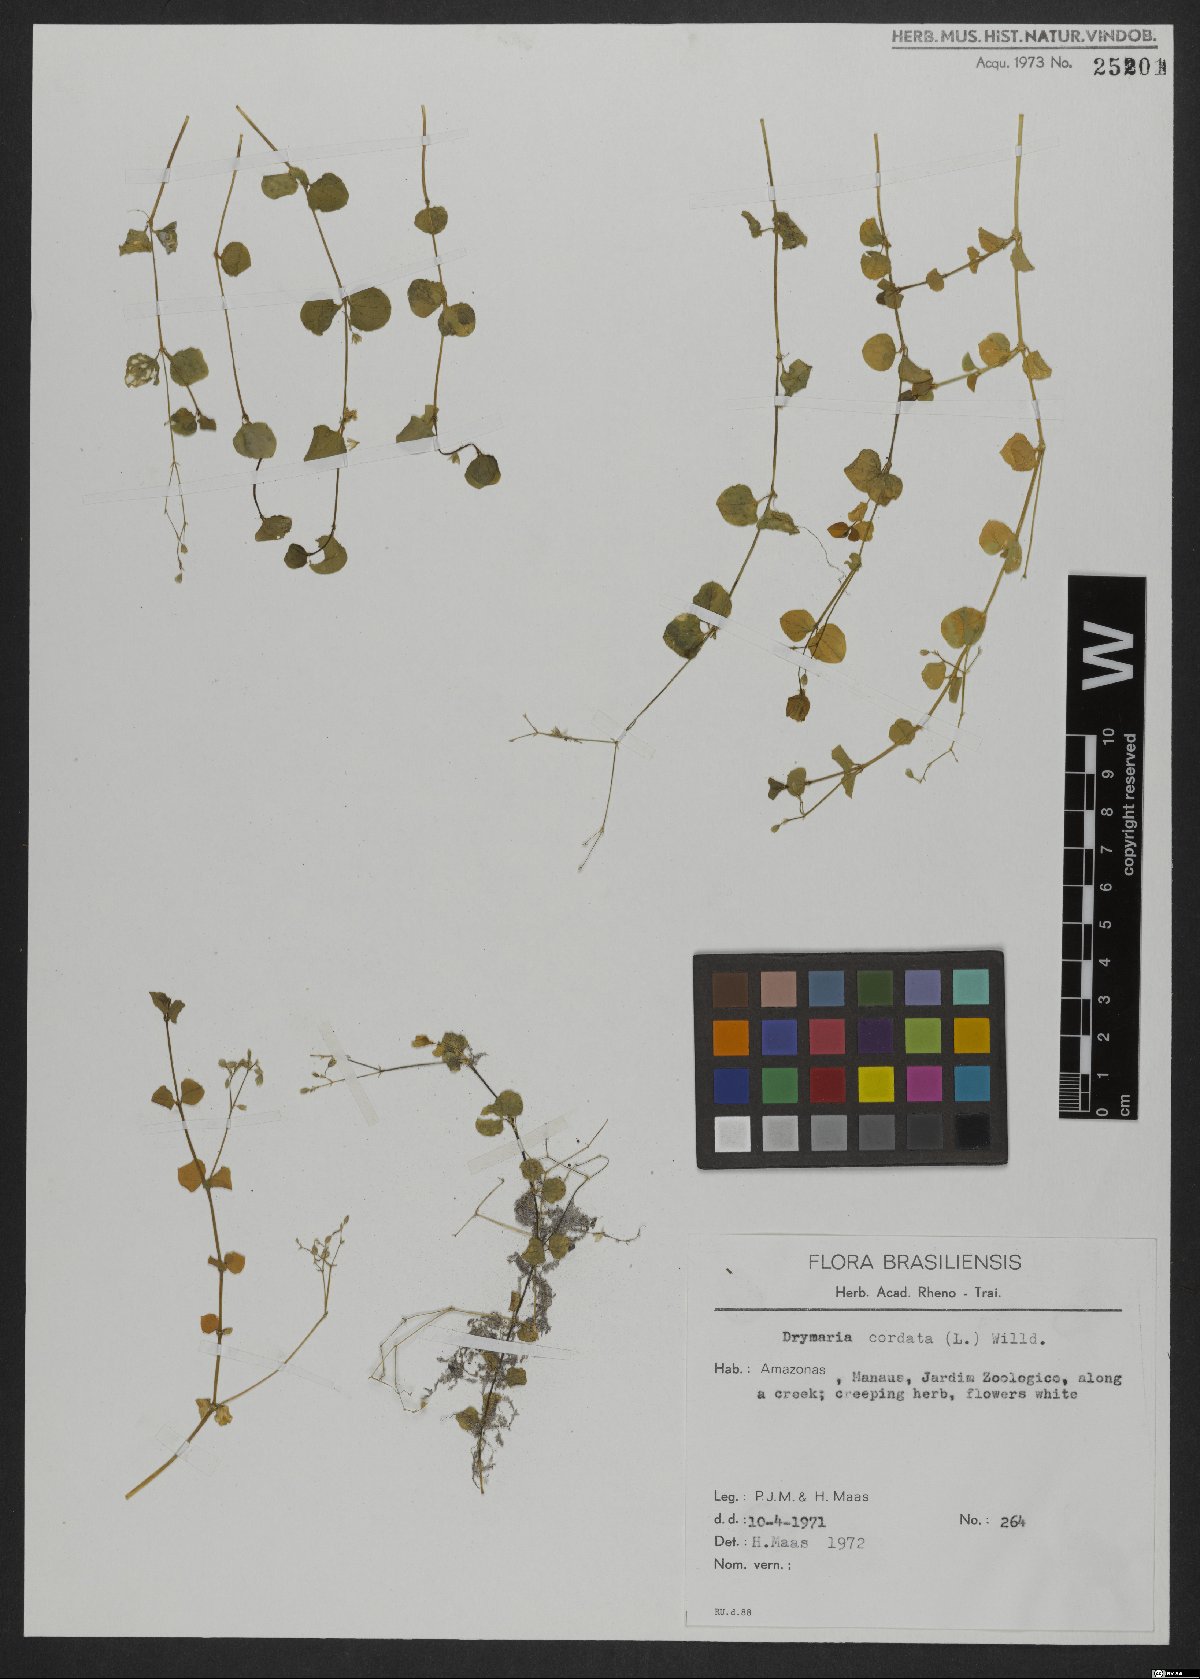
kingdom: Plantae
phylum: Tracheophyta
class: Magnoliopsida
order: Caryophyllales
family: Caryophyllaceae
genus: Drymaria
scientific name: Drymaria cordata
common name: Whitesnow
